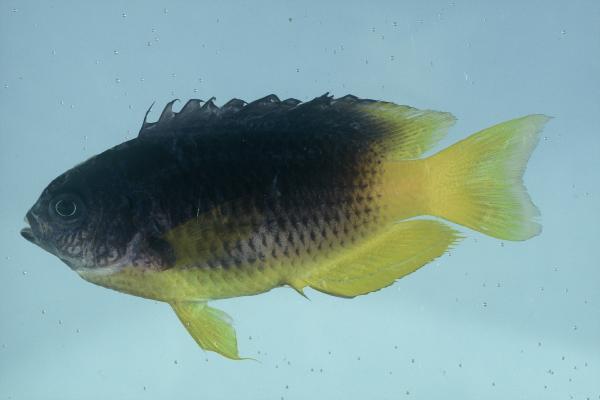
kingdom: Animalia
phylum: Chordata
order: Perciformes
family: Pomacentridae
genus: Pomacentrus
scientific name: Pomacentrus caeruleus
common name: Caerulean damsel
